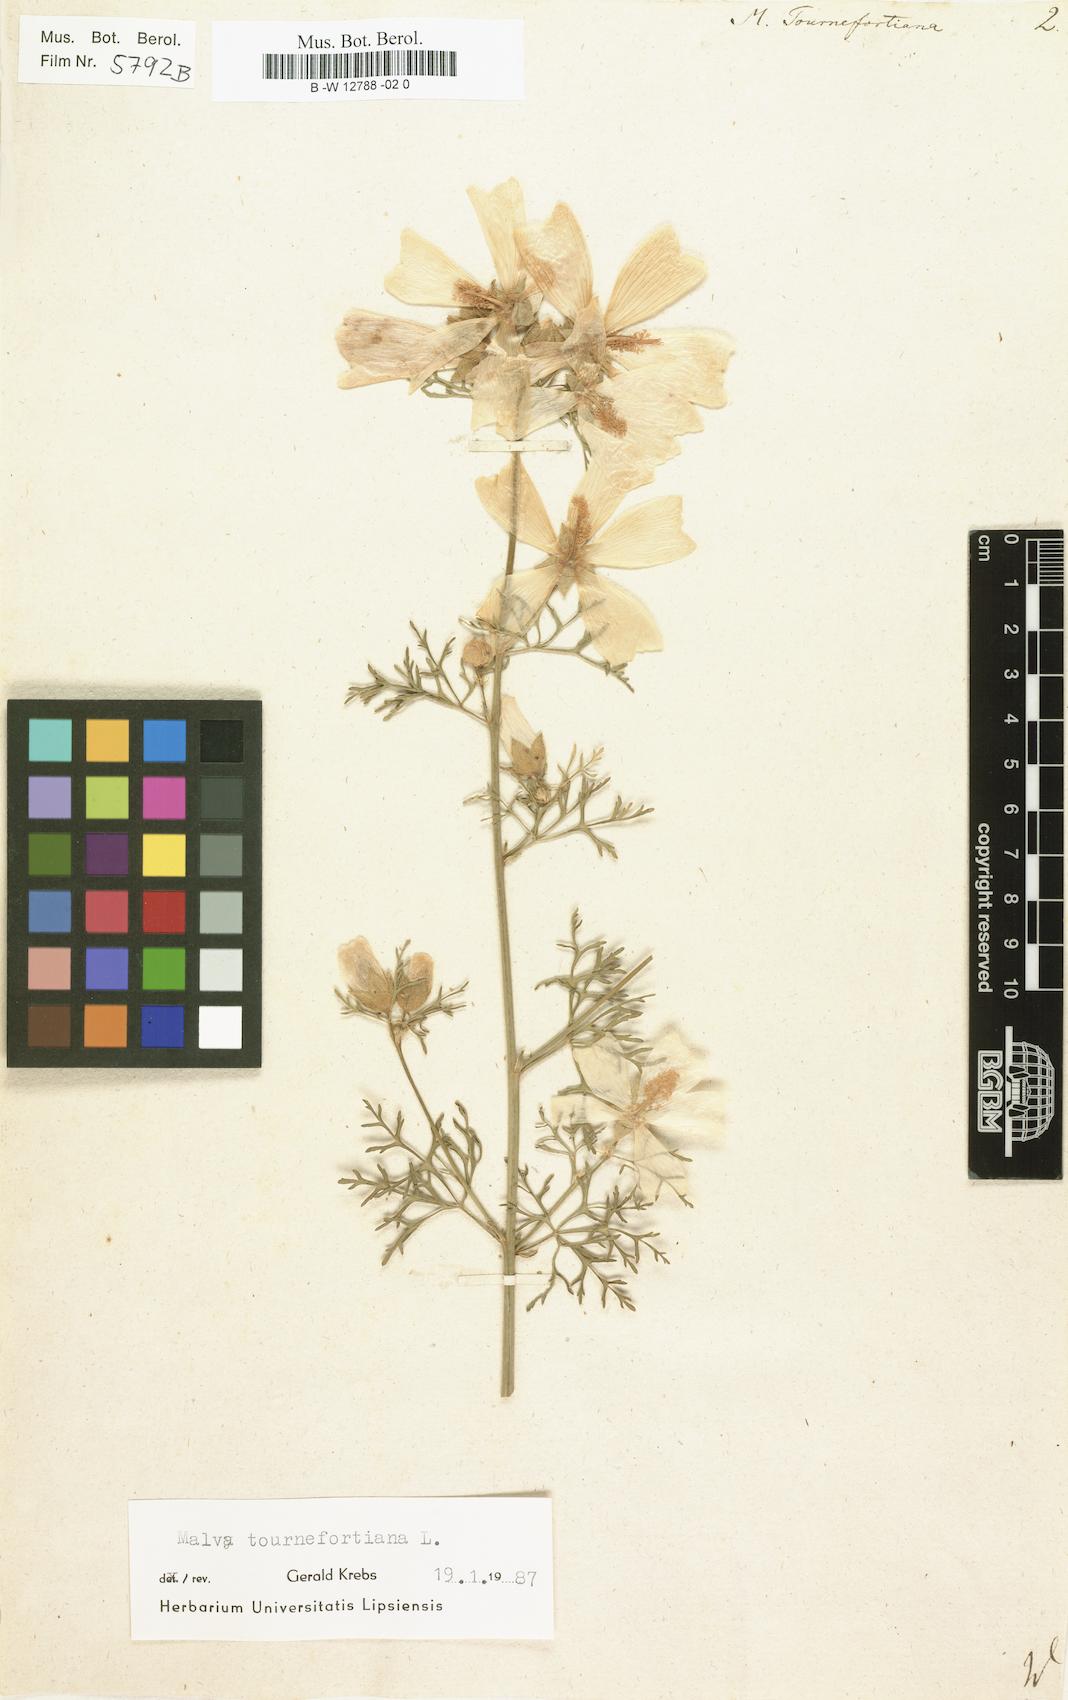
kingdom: Plantae
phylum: Tracheophyta
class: Magnoliopsida
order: Malvales
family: Malvaceae
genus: Malva
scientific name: Malva tournefortiana
